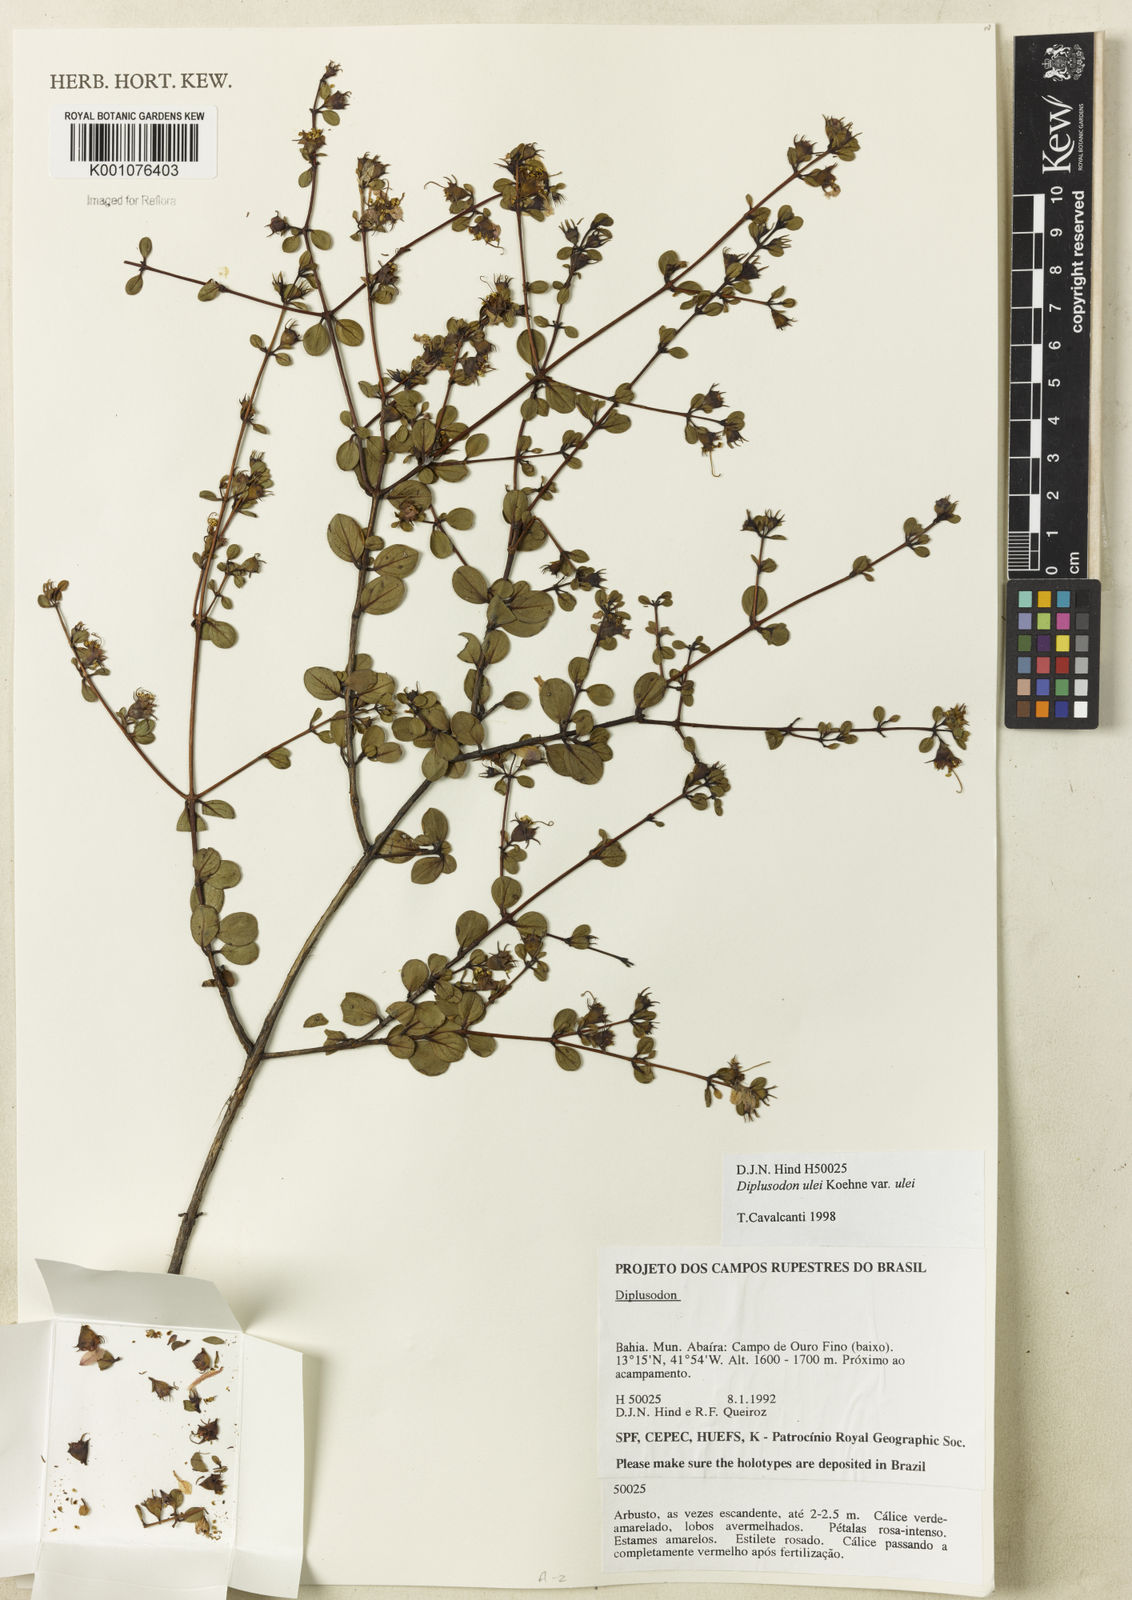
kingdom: Plantae
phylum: Tracheophyta
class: Magnoliopsida
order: Myrtales
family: Lythraceae
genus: Diplusodon
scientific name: Diplusodon ulei
